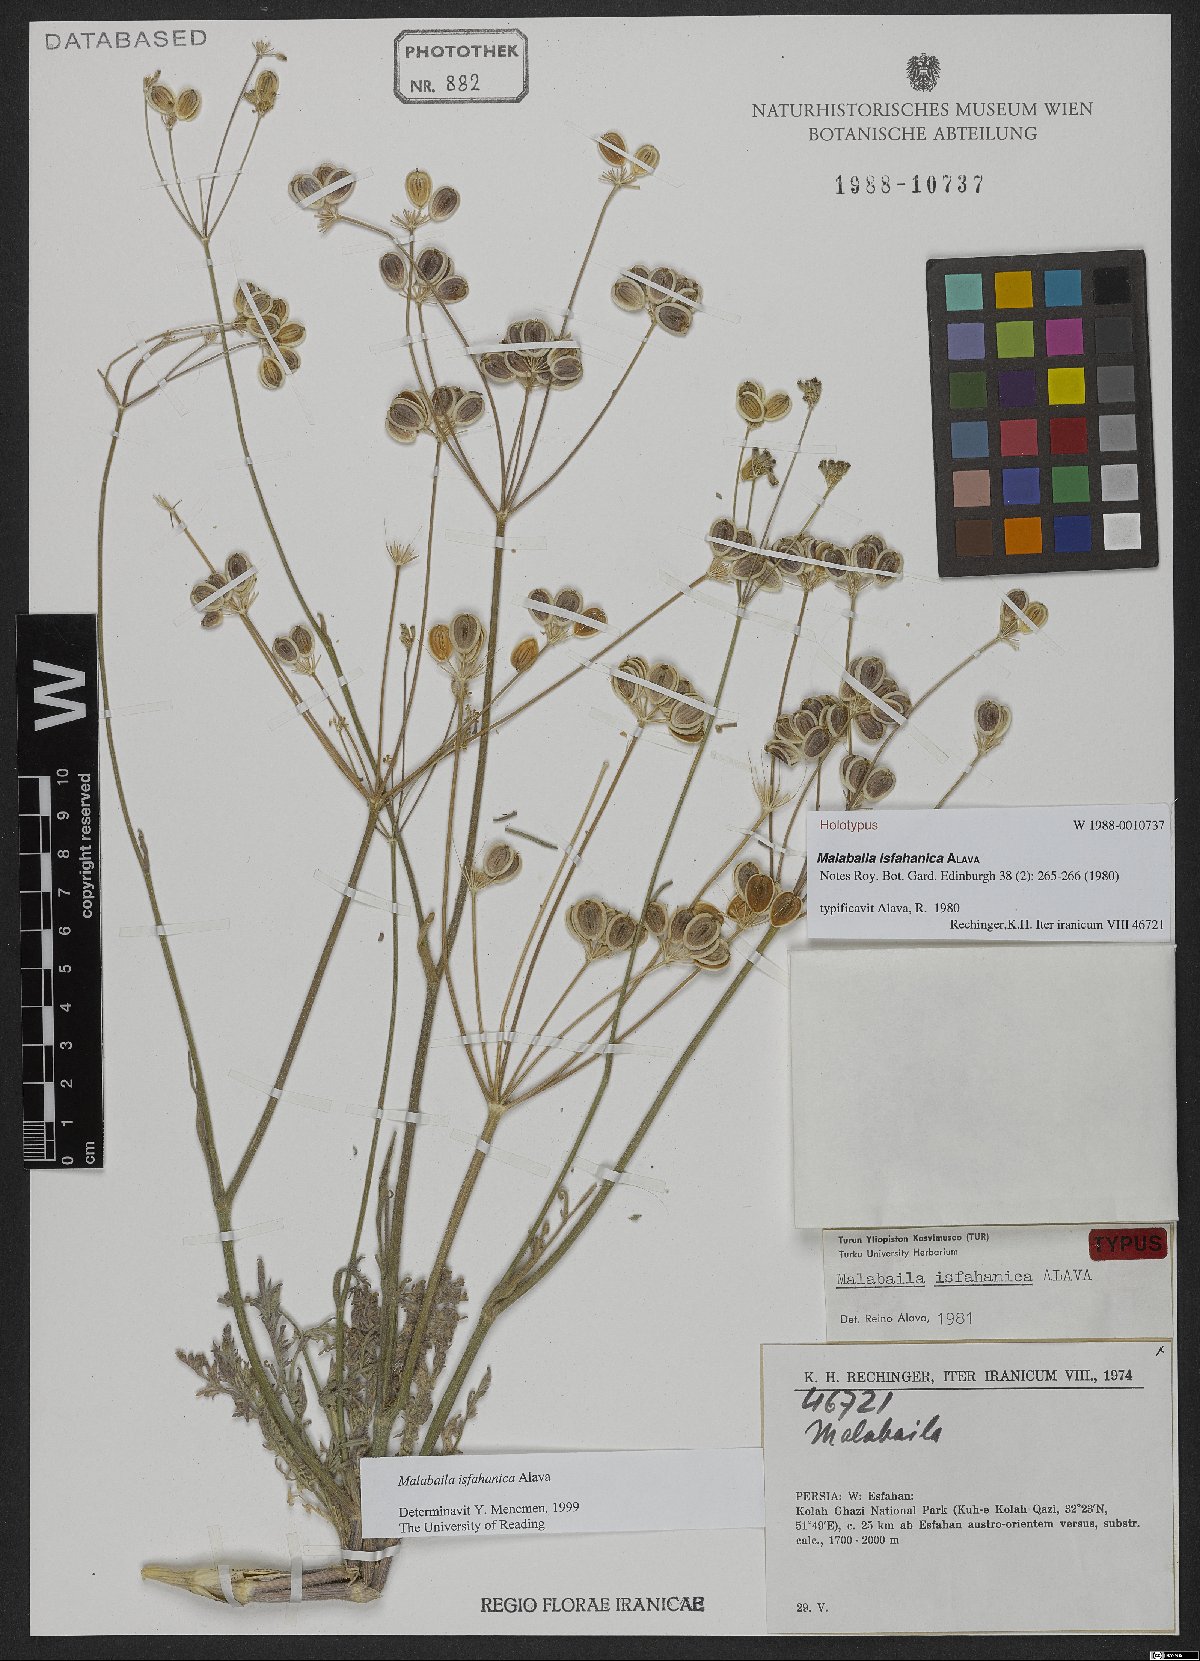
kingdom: Plantae
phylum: Tracheophyta
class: Magnoliopsida
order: Apiales
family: Apiaceae
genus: Leiotulus
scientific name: Leiotulus isfahanicus
